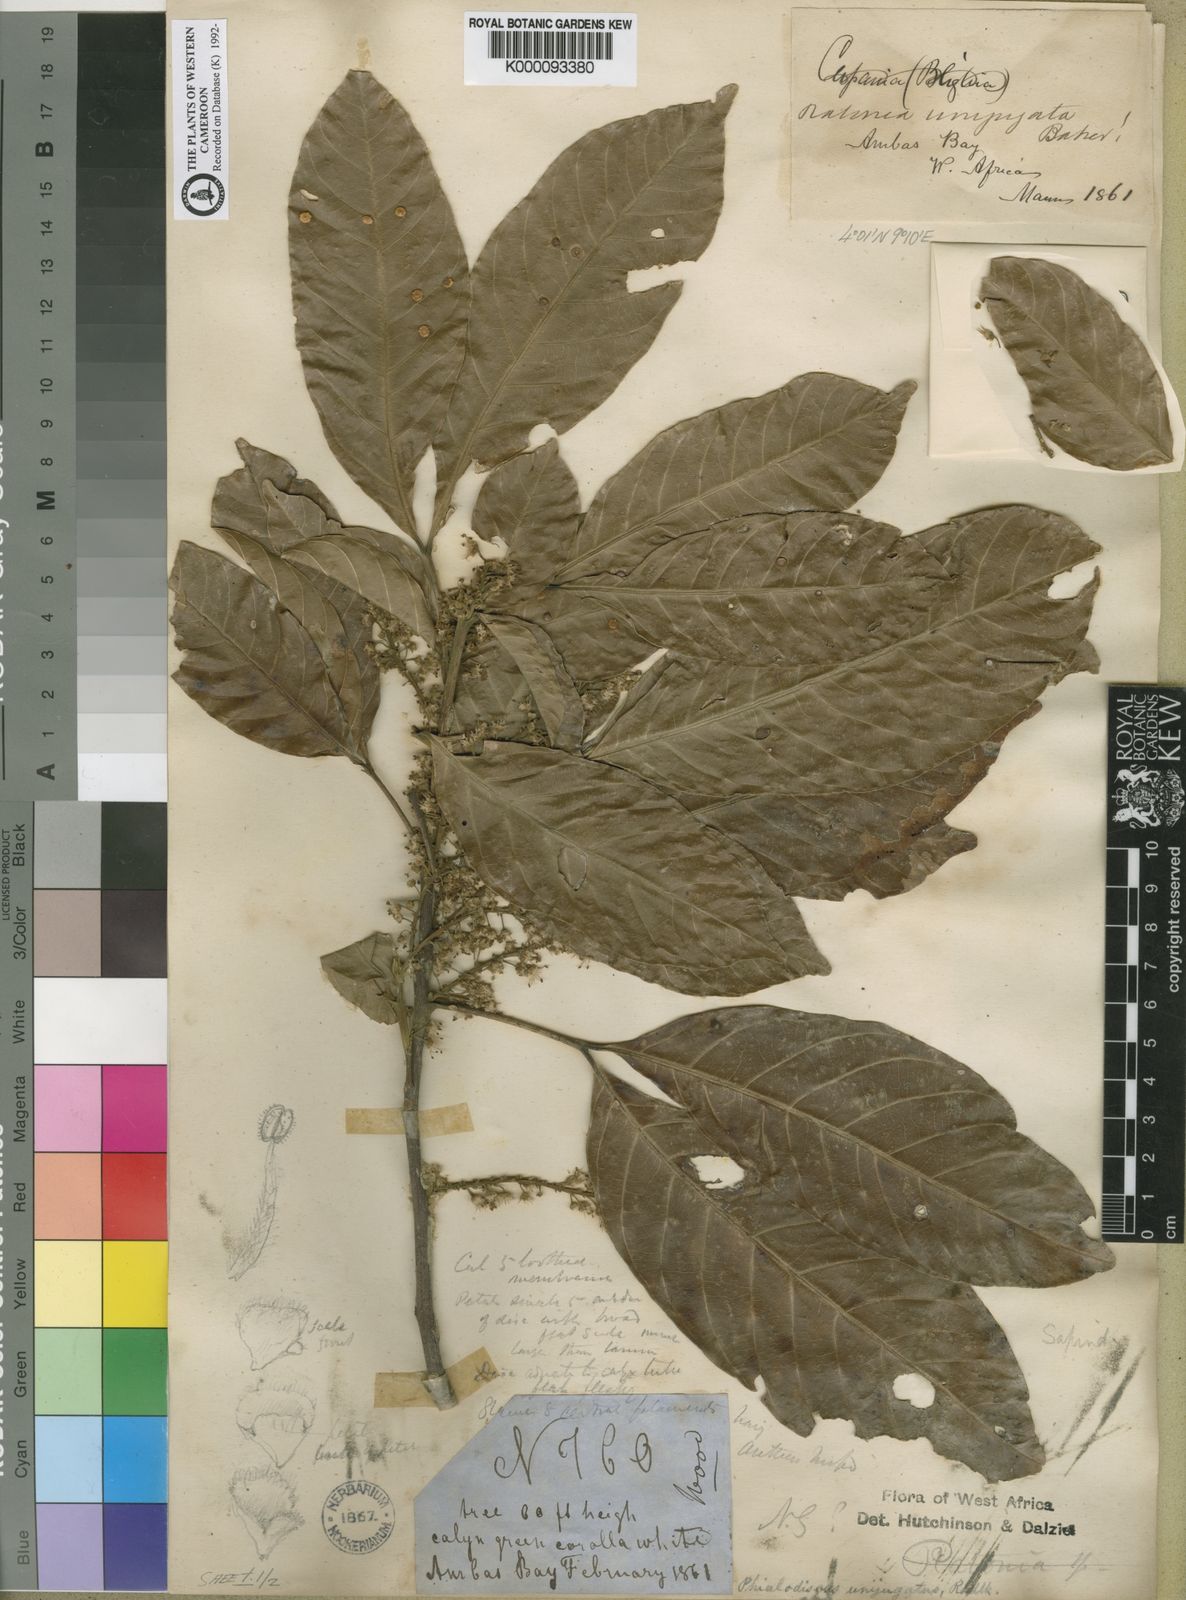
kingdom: Plantae
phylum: Tracheophyta
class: Magnoliopsida
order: Sapindales
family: Sapindaceae
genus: Blighia
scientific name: Blighia unijugata
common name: Triangle tops
